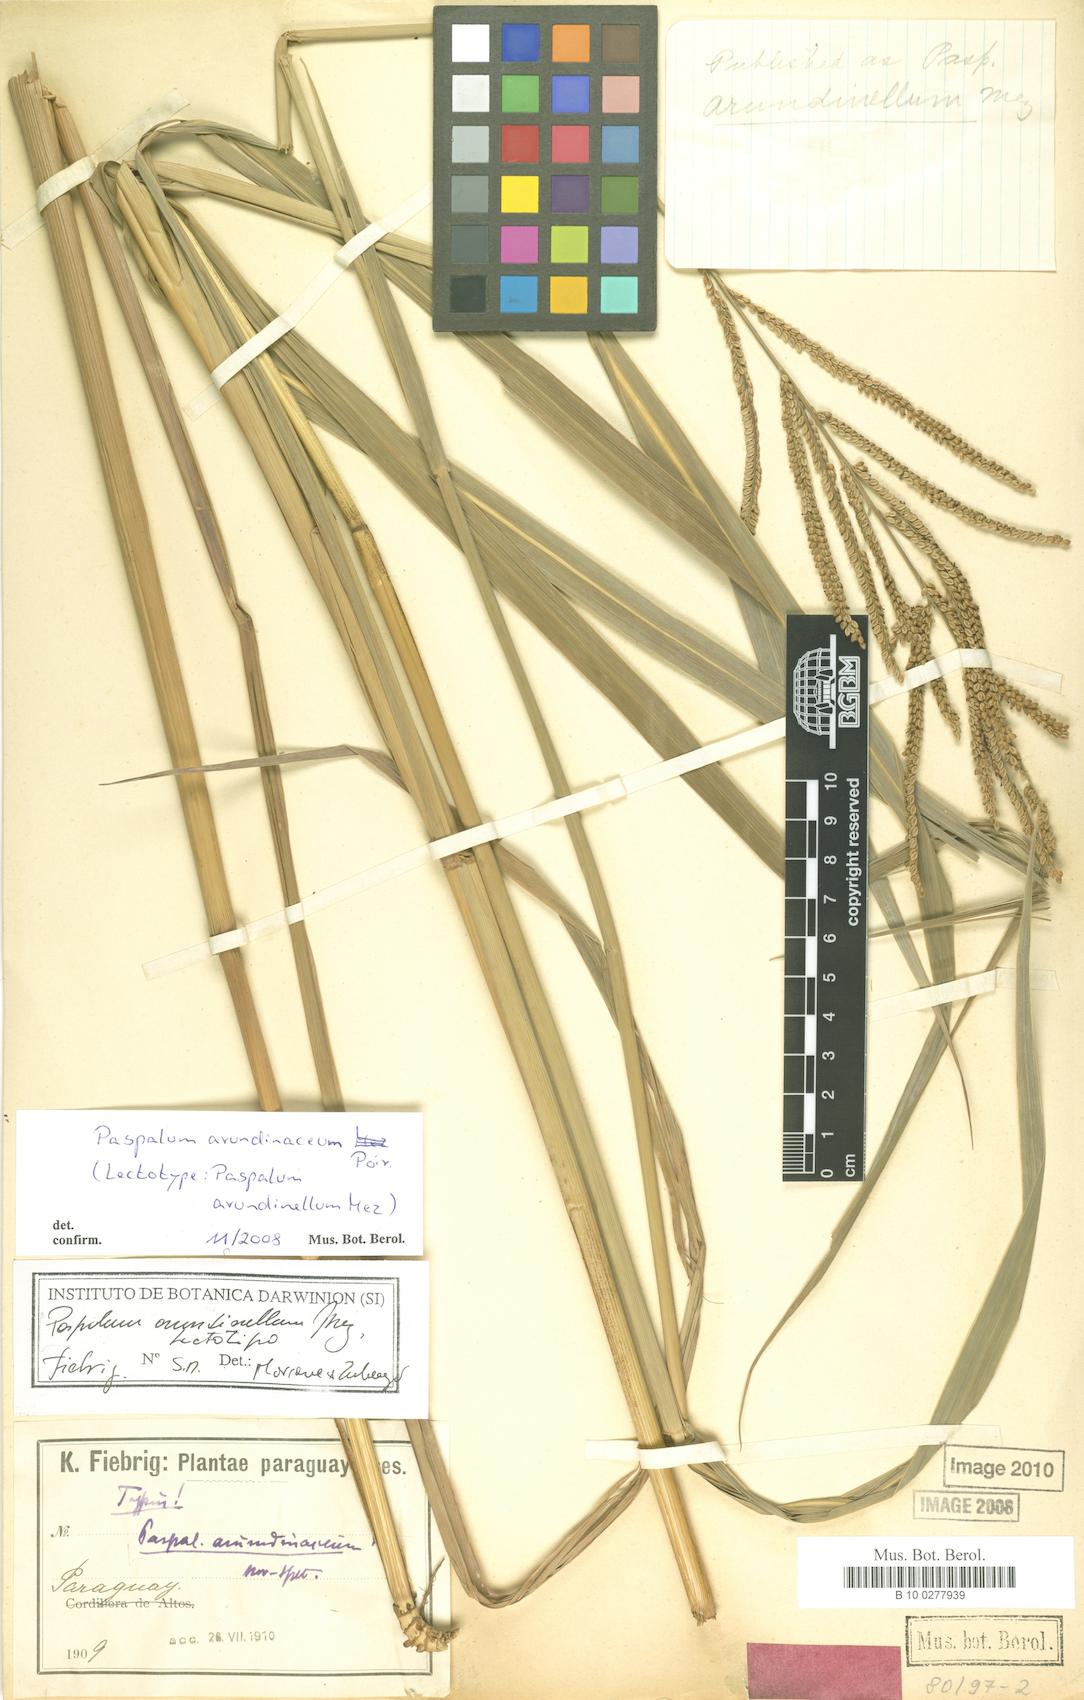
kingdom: Plantae
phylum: Tracheophyta
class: Liliopsida
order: Poales
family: Poaceae
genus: Paspalum
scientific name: Paspalum arundinellum
